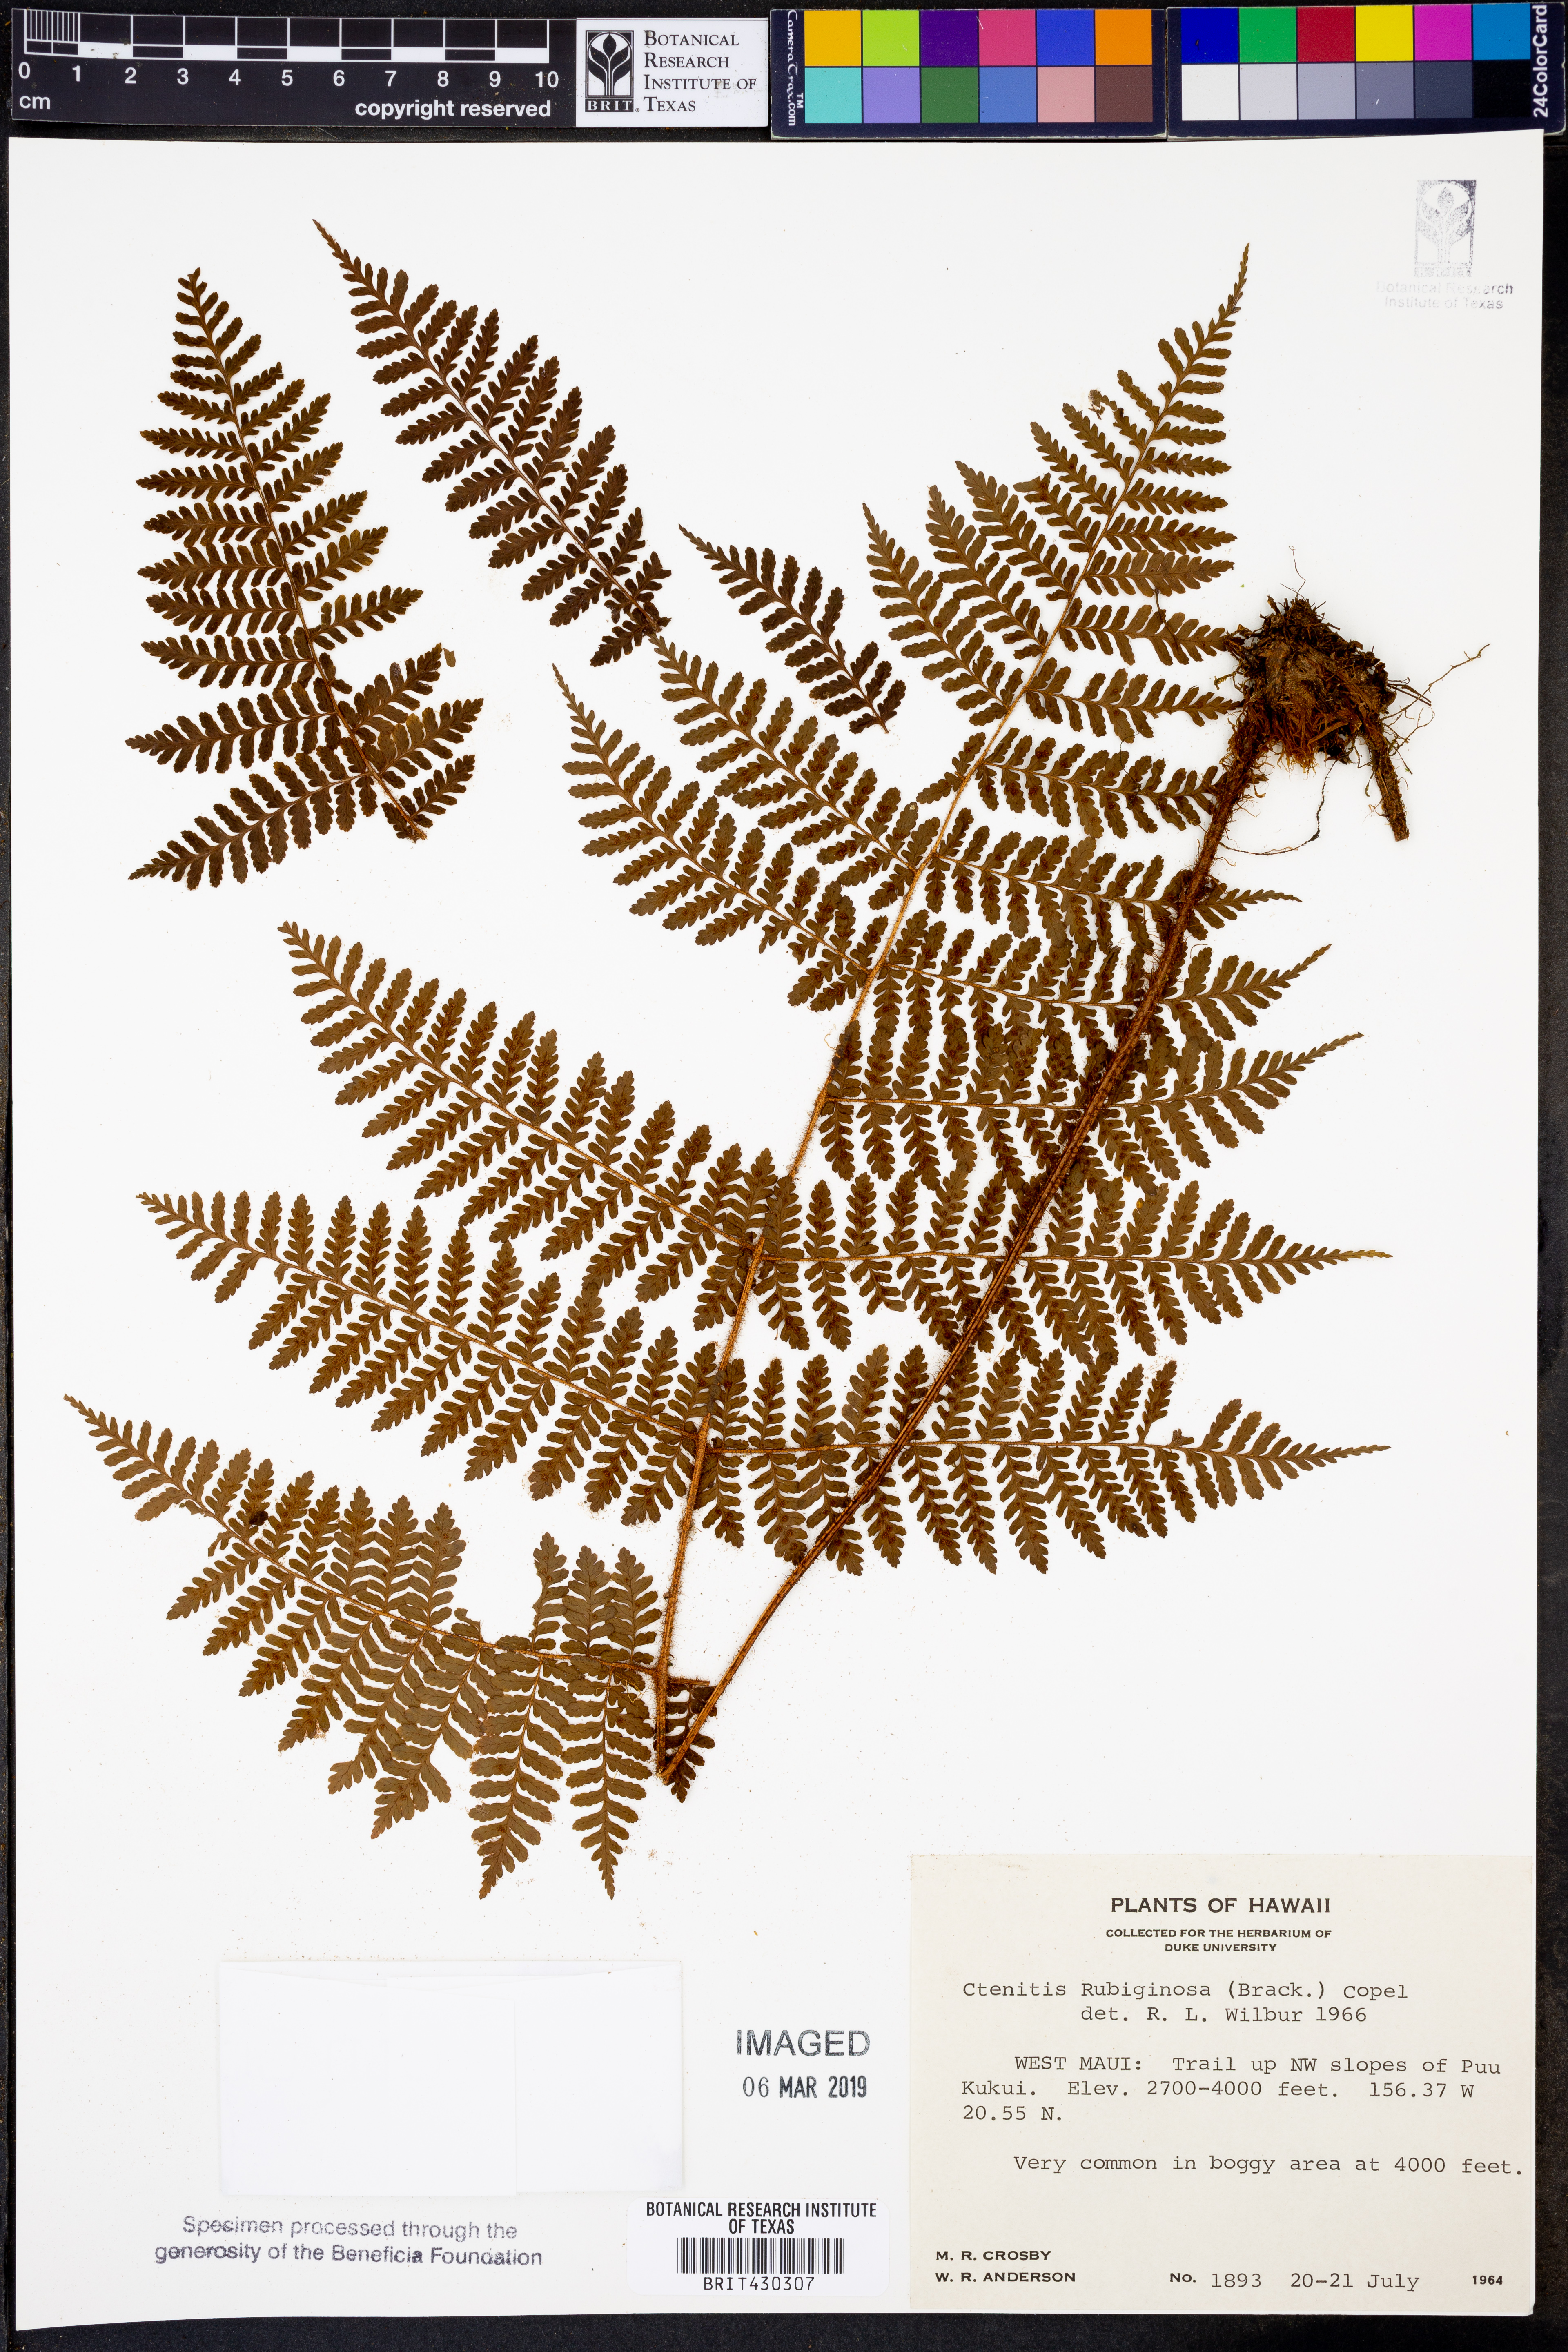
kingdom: Plantae
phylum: Tracheophyta
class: Polypodiopsida
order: Polypodiales
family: Dryopteridaceae
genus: Dryopteris
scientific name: Dryopteris rubiginosa
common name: Island lacefern
